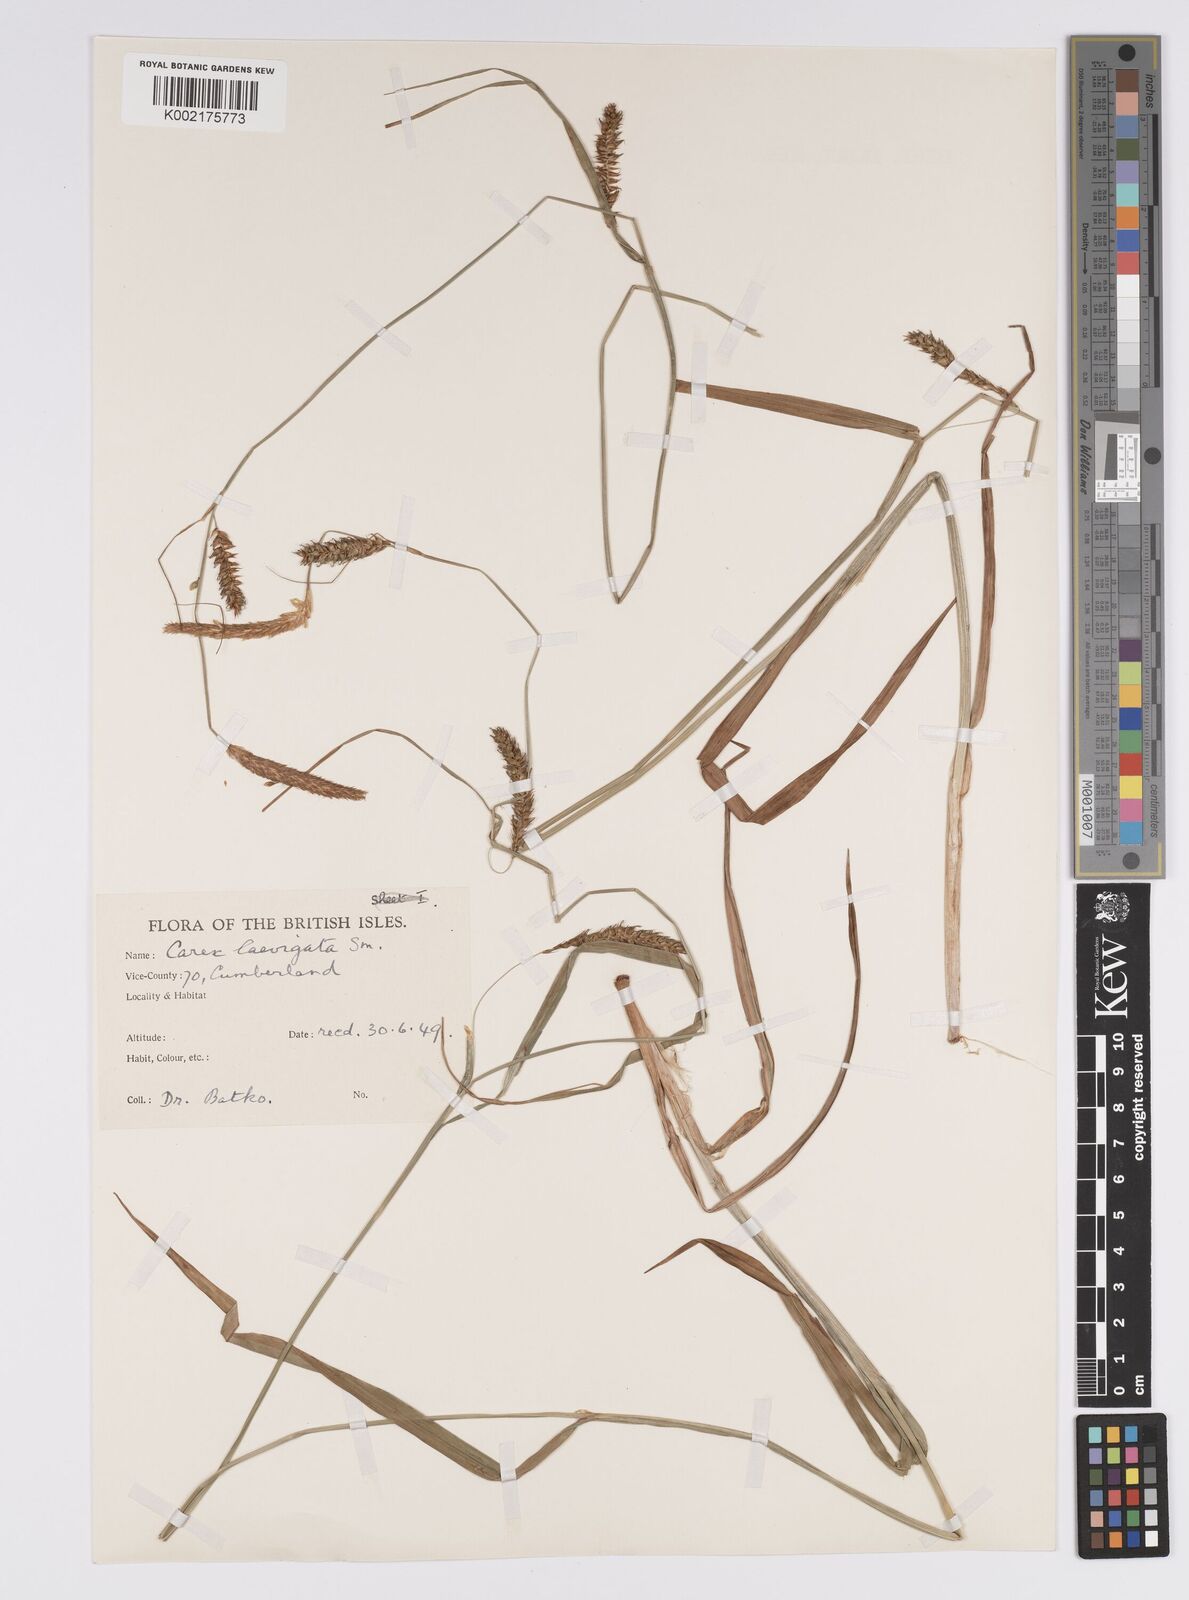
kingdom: Plantae
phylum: Tracheophyta
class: Liliopsida
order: Poales
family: Cyperaceae
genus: Carex
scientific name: Carex laevigata
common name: Smooth-stalked sedge
